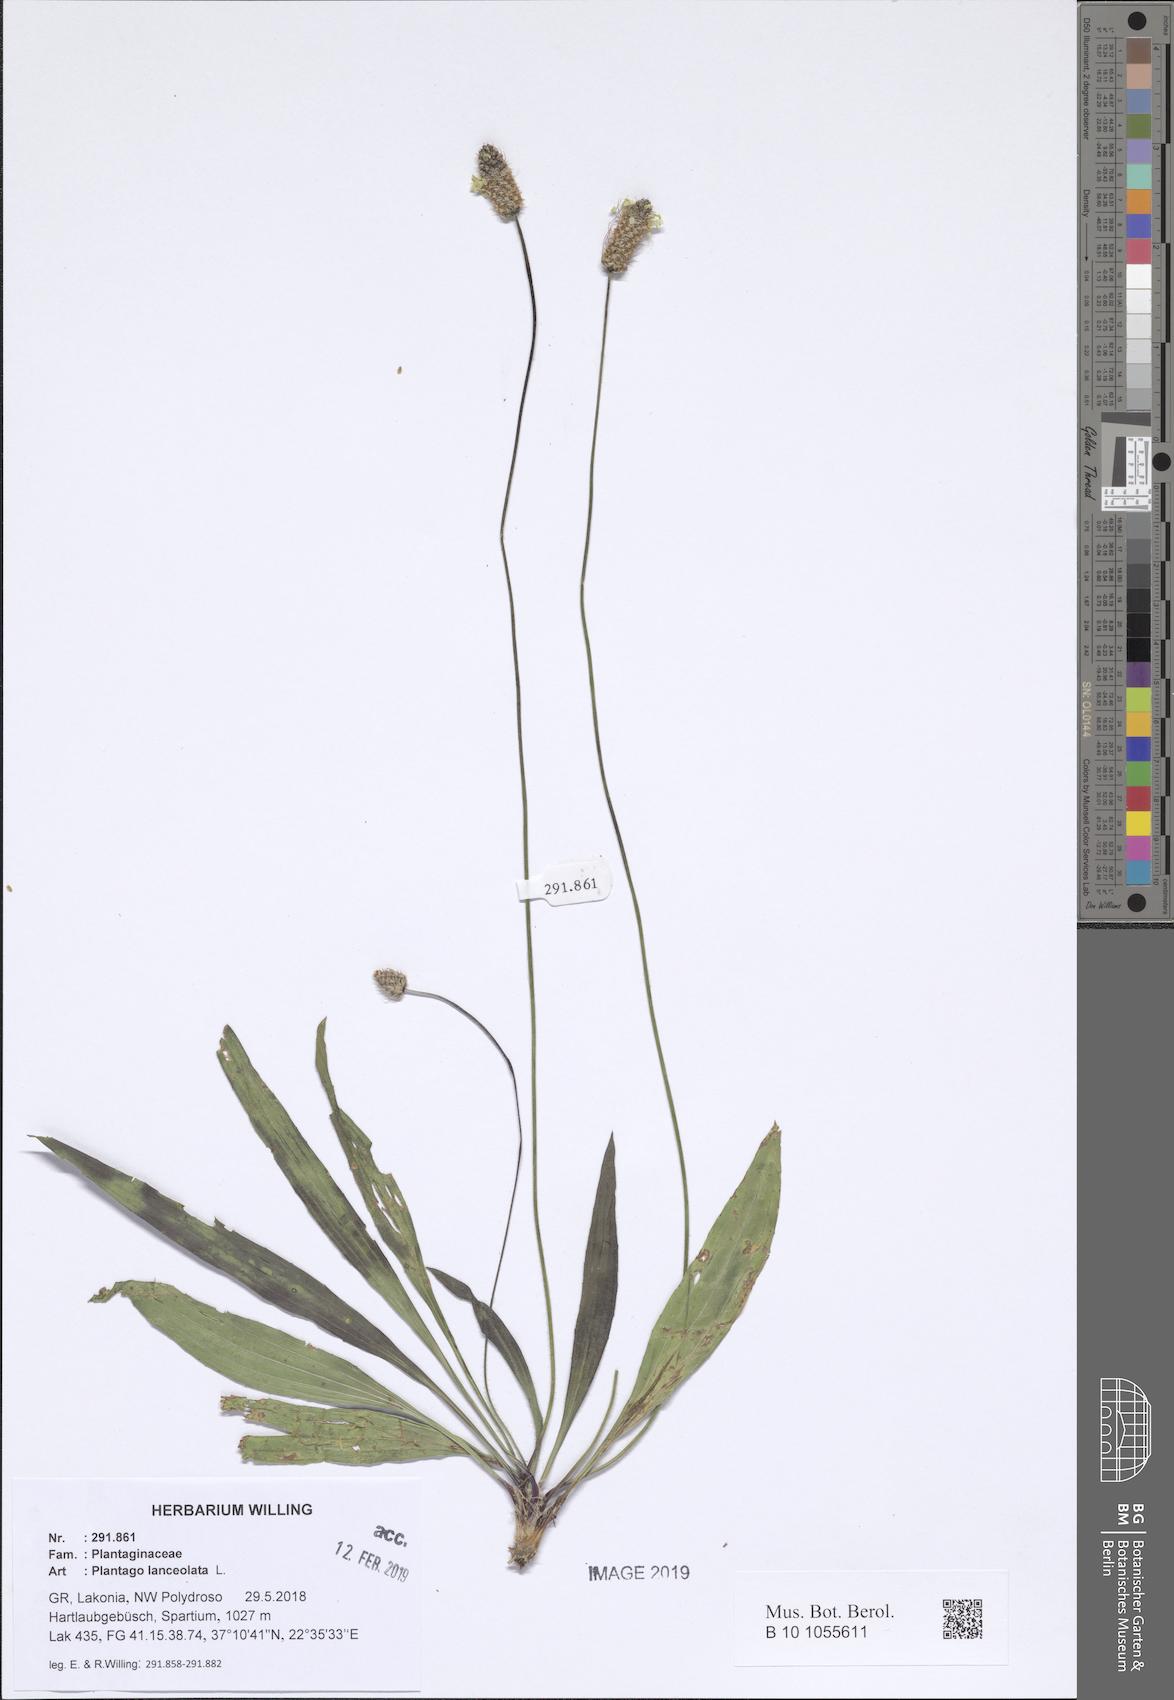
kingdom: Plantae
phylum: Tracheophyta
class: Magnoliopsida
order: Lamiales
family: Plantaginaceae
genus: Plantago
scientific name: Plantago lanceolata
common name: Ribwort plantain
